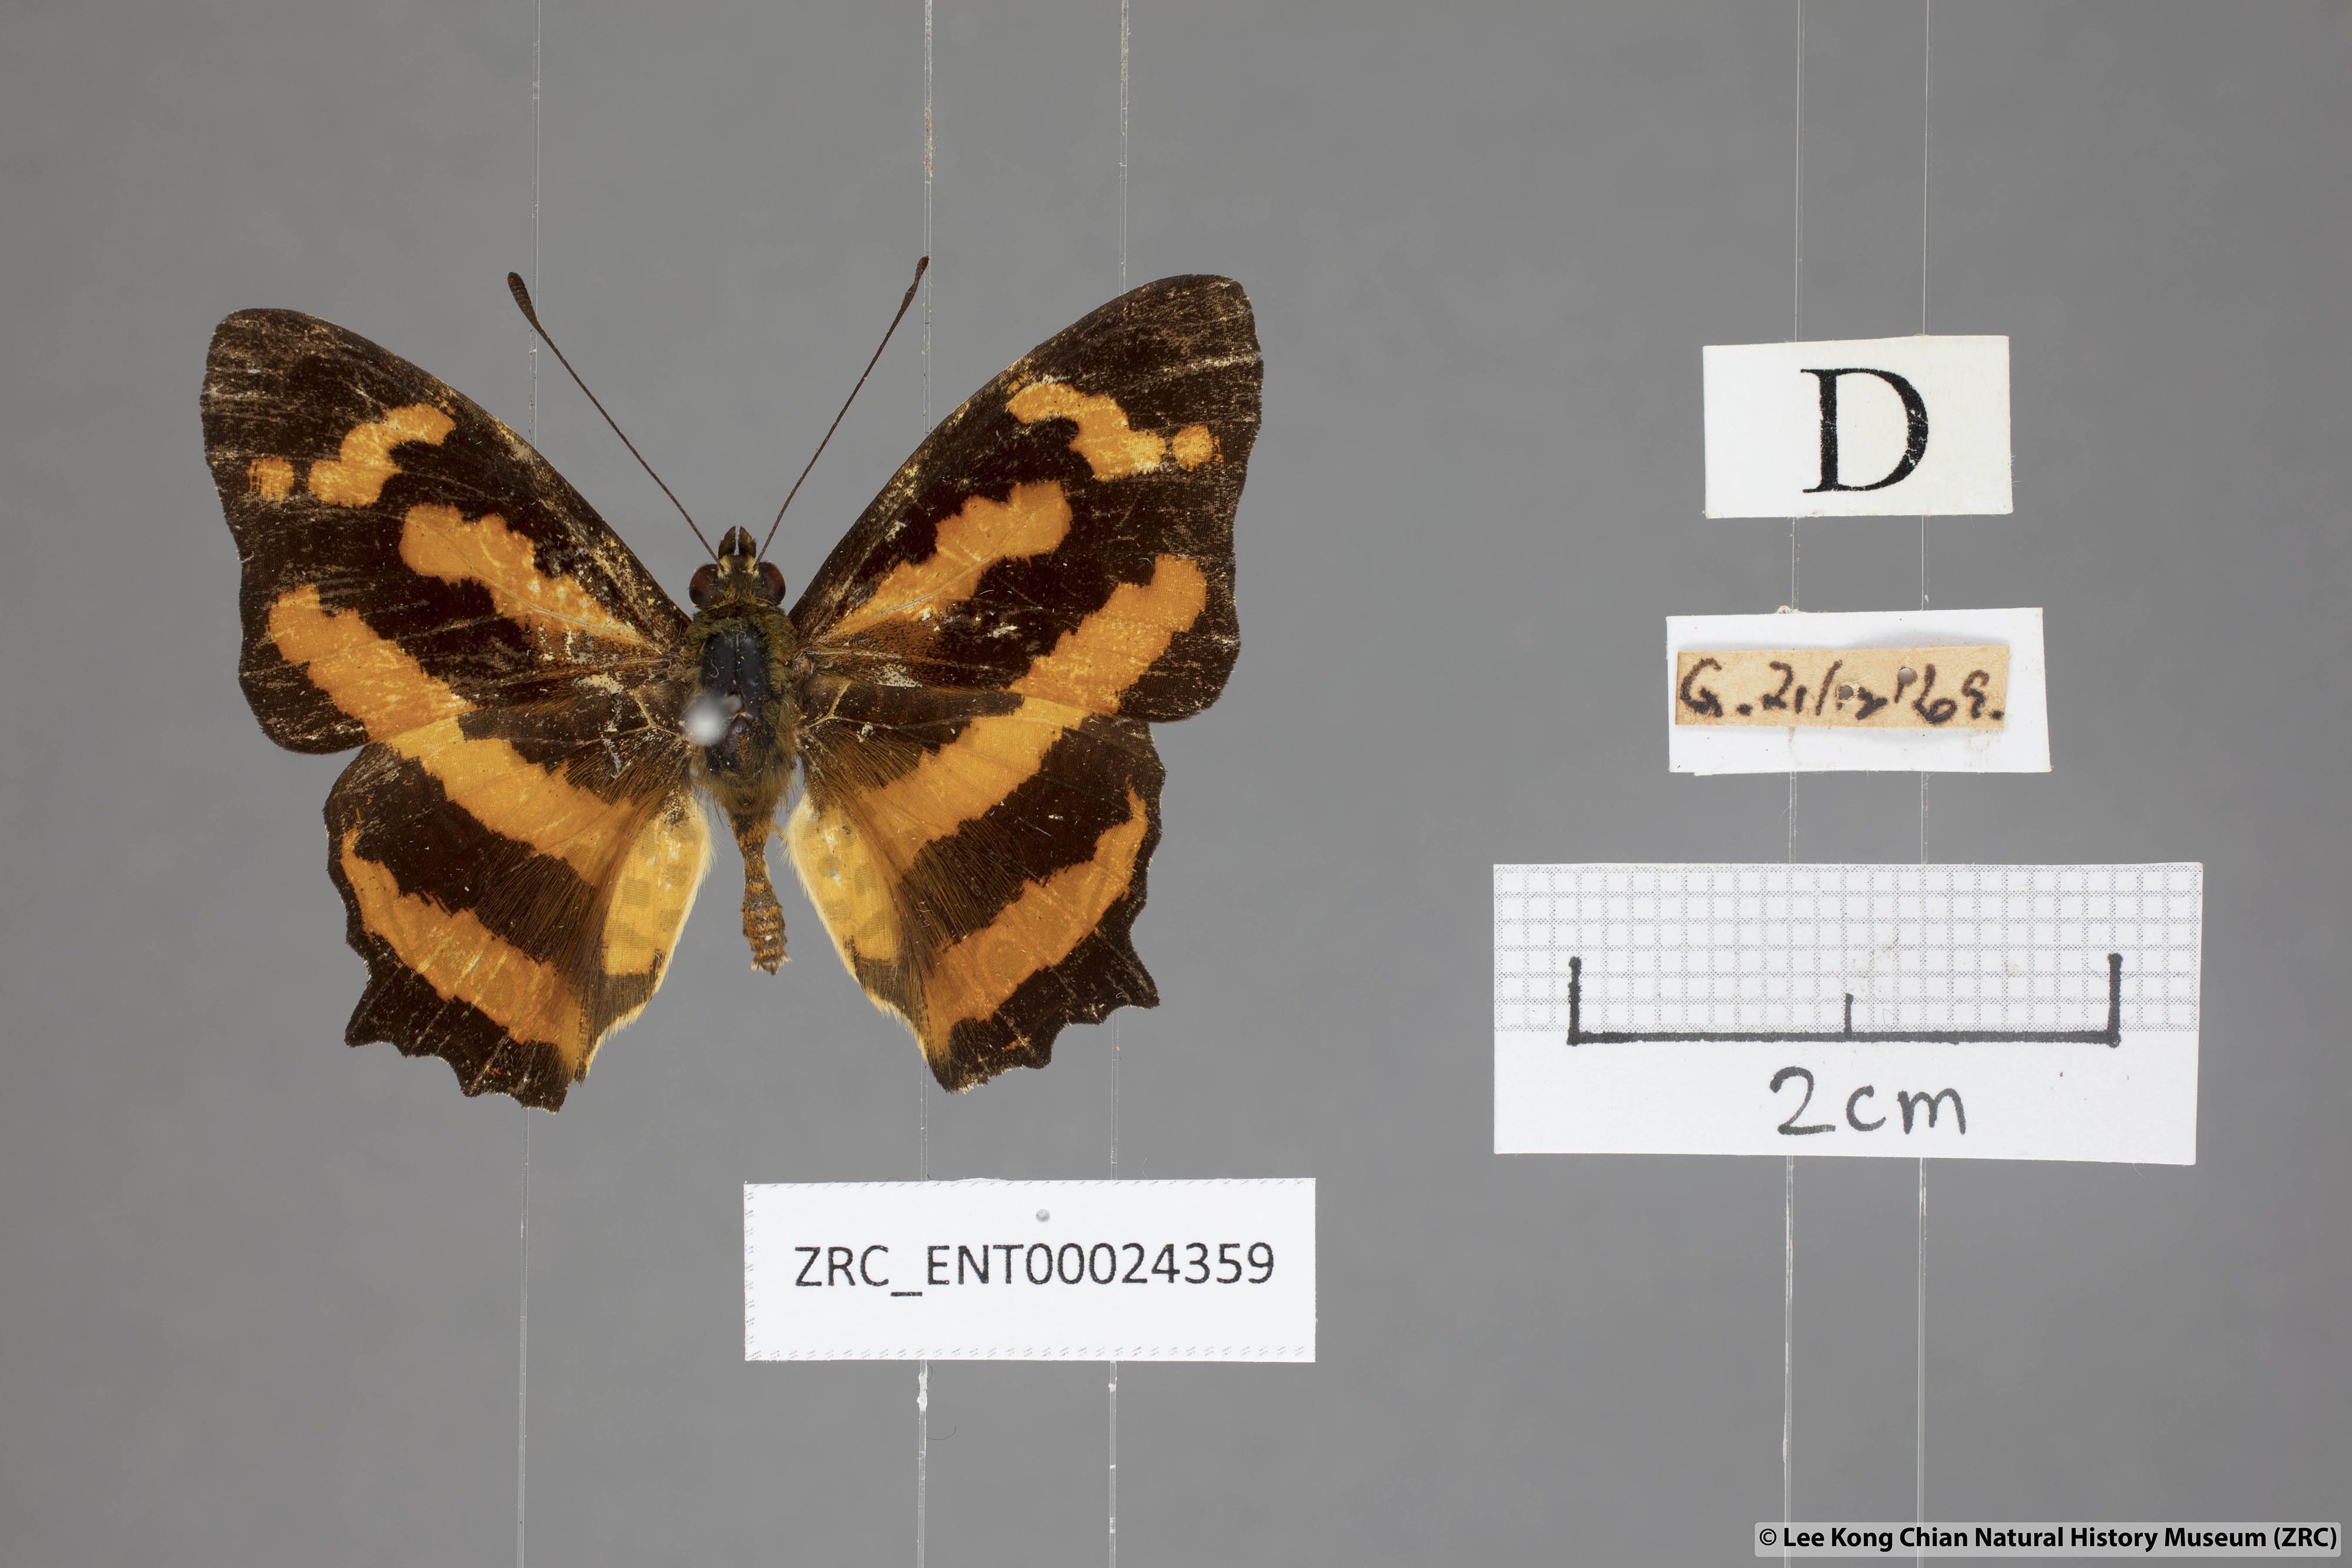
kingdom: Animalia
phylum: Arthropoda
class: Insecta
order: Lepidoptera
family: Nymphalidae
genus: Symbrenthia
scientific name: Symbrenthia hypselis
